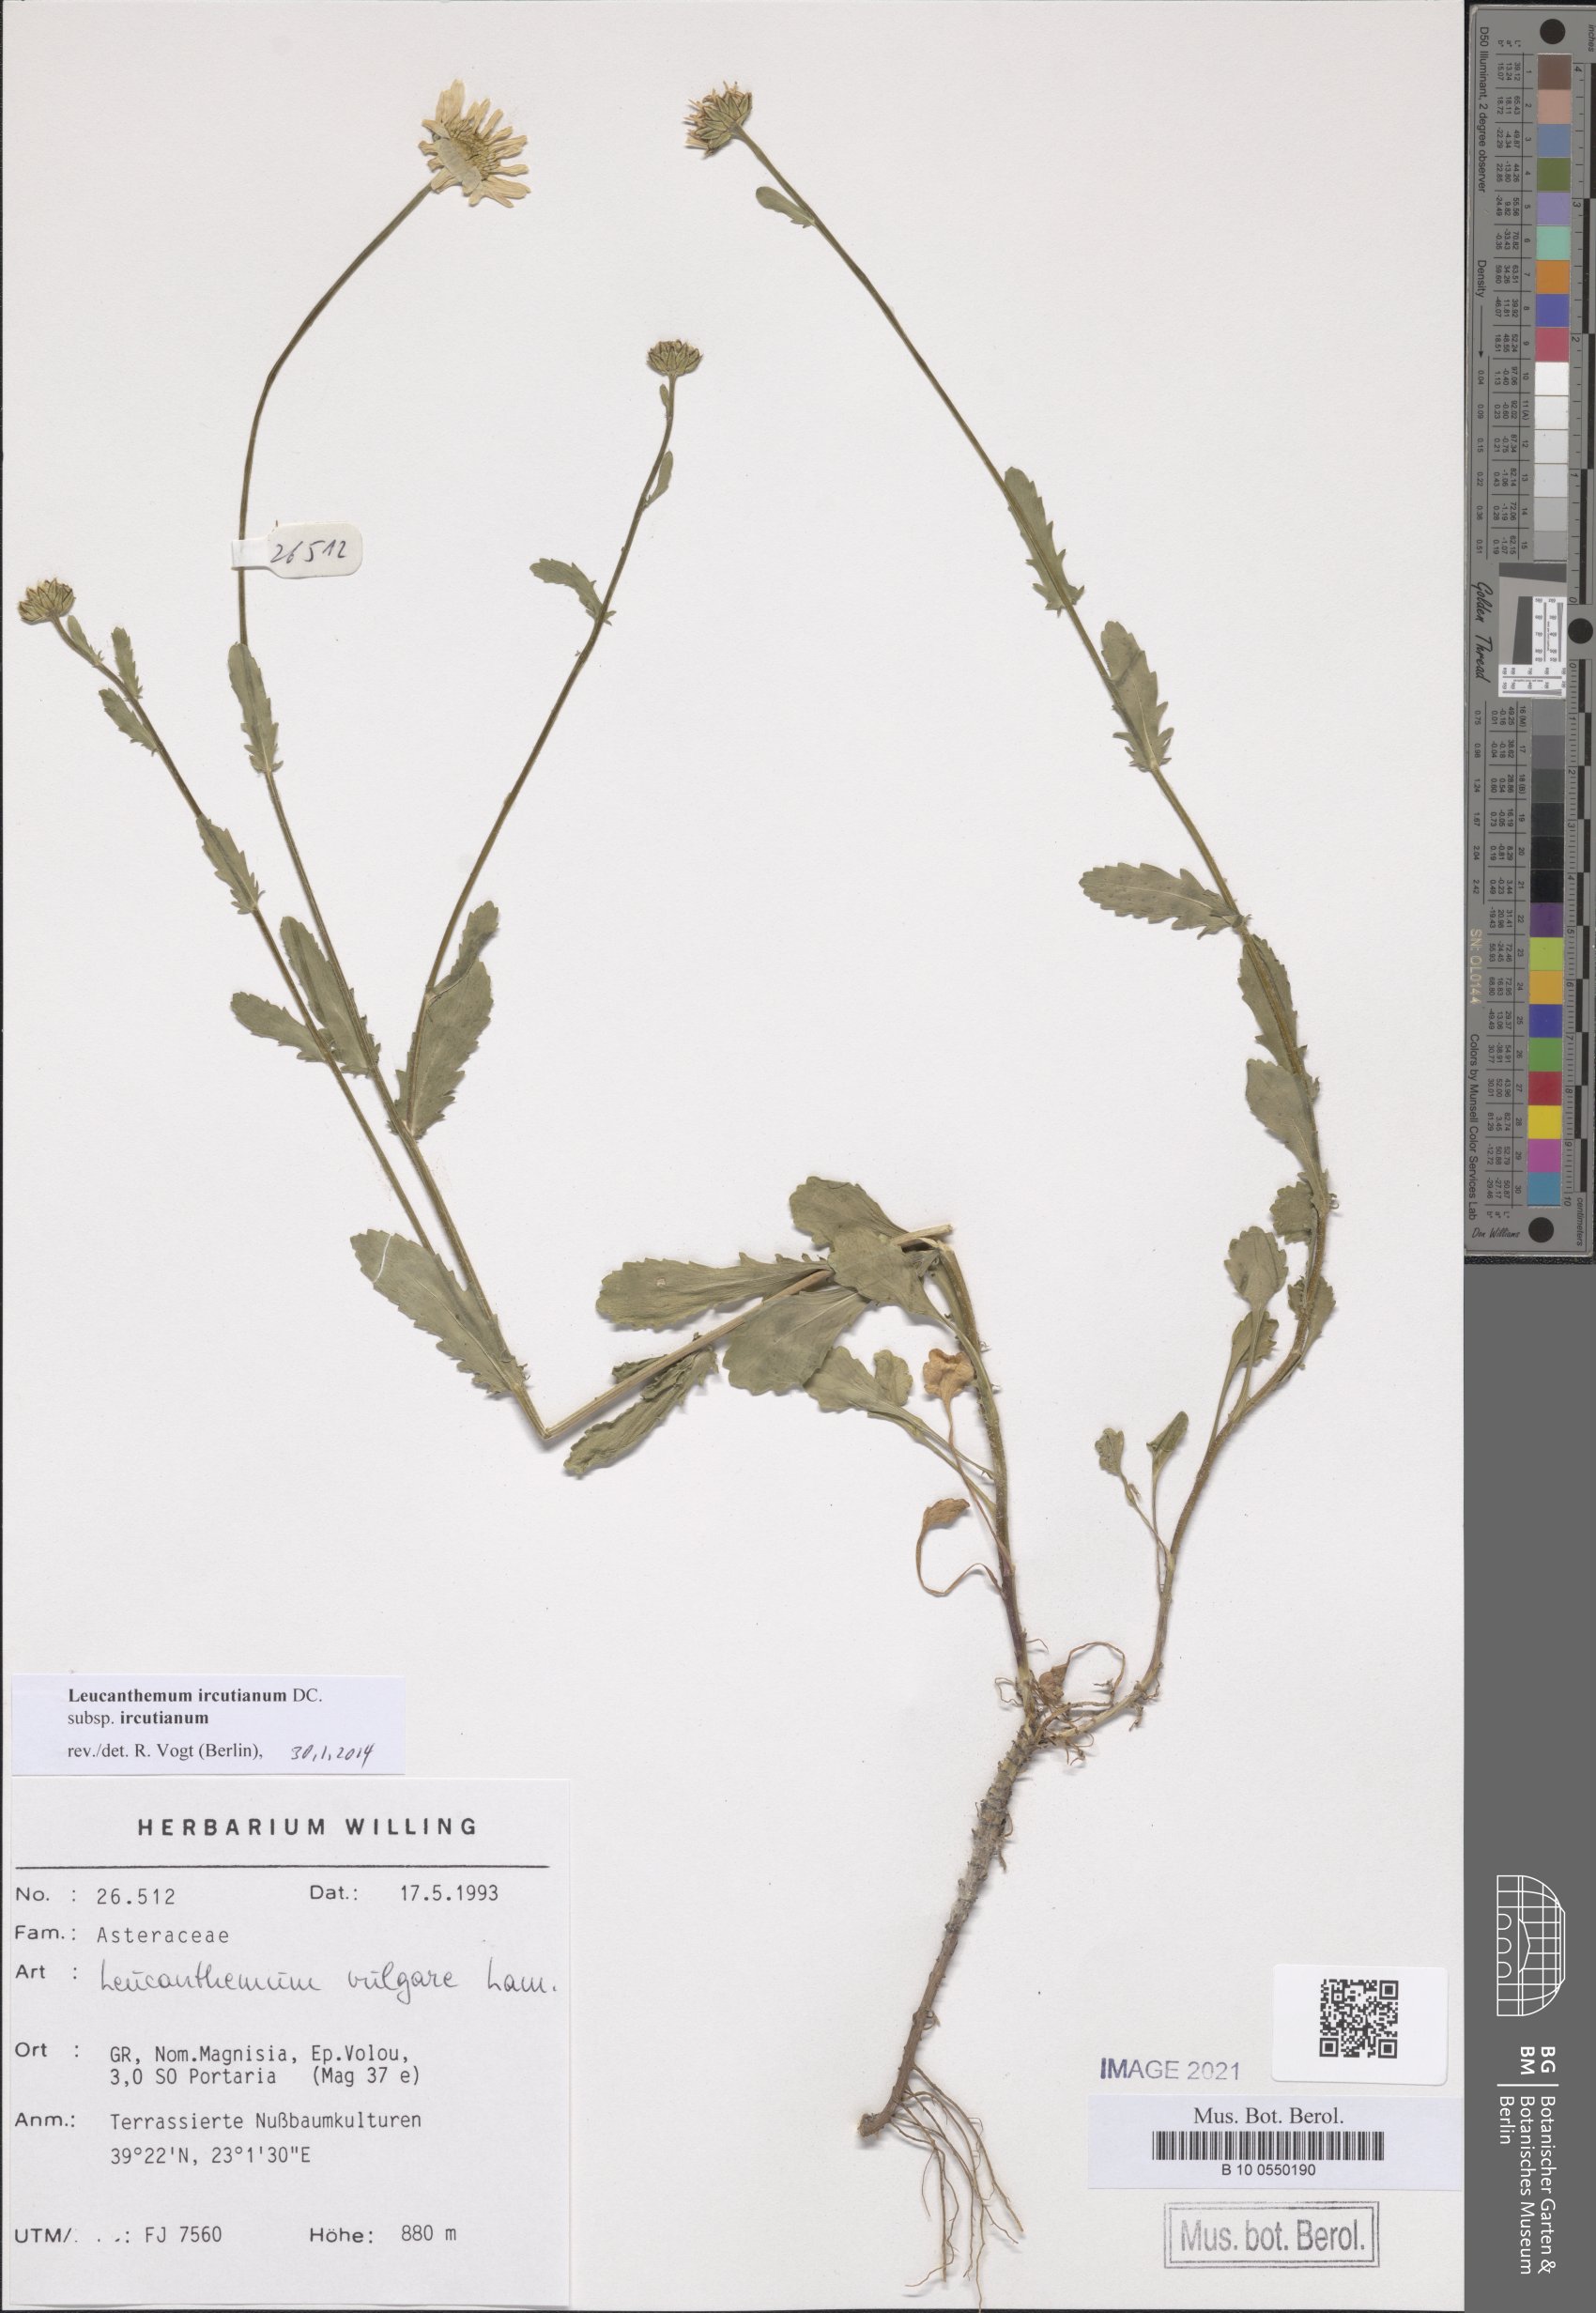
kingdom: Plantae
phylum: Tracheophyta
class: Magnoliopsida
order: Asterales
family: Asteraceae
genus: Leucanthemum
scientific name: Leucanthemum ircutianum
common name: Daisy
